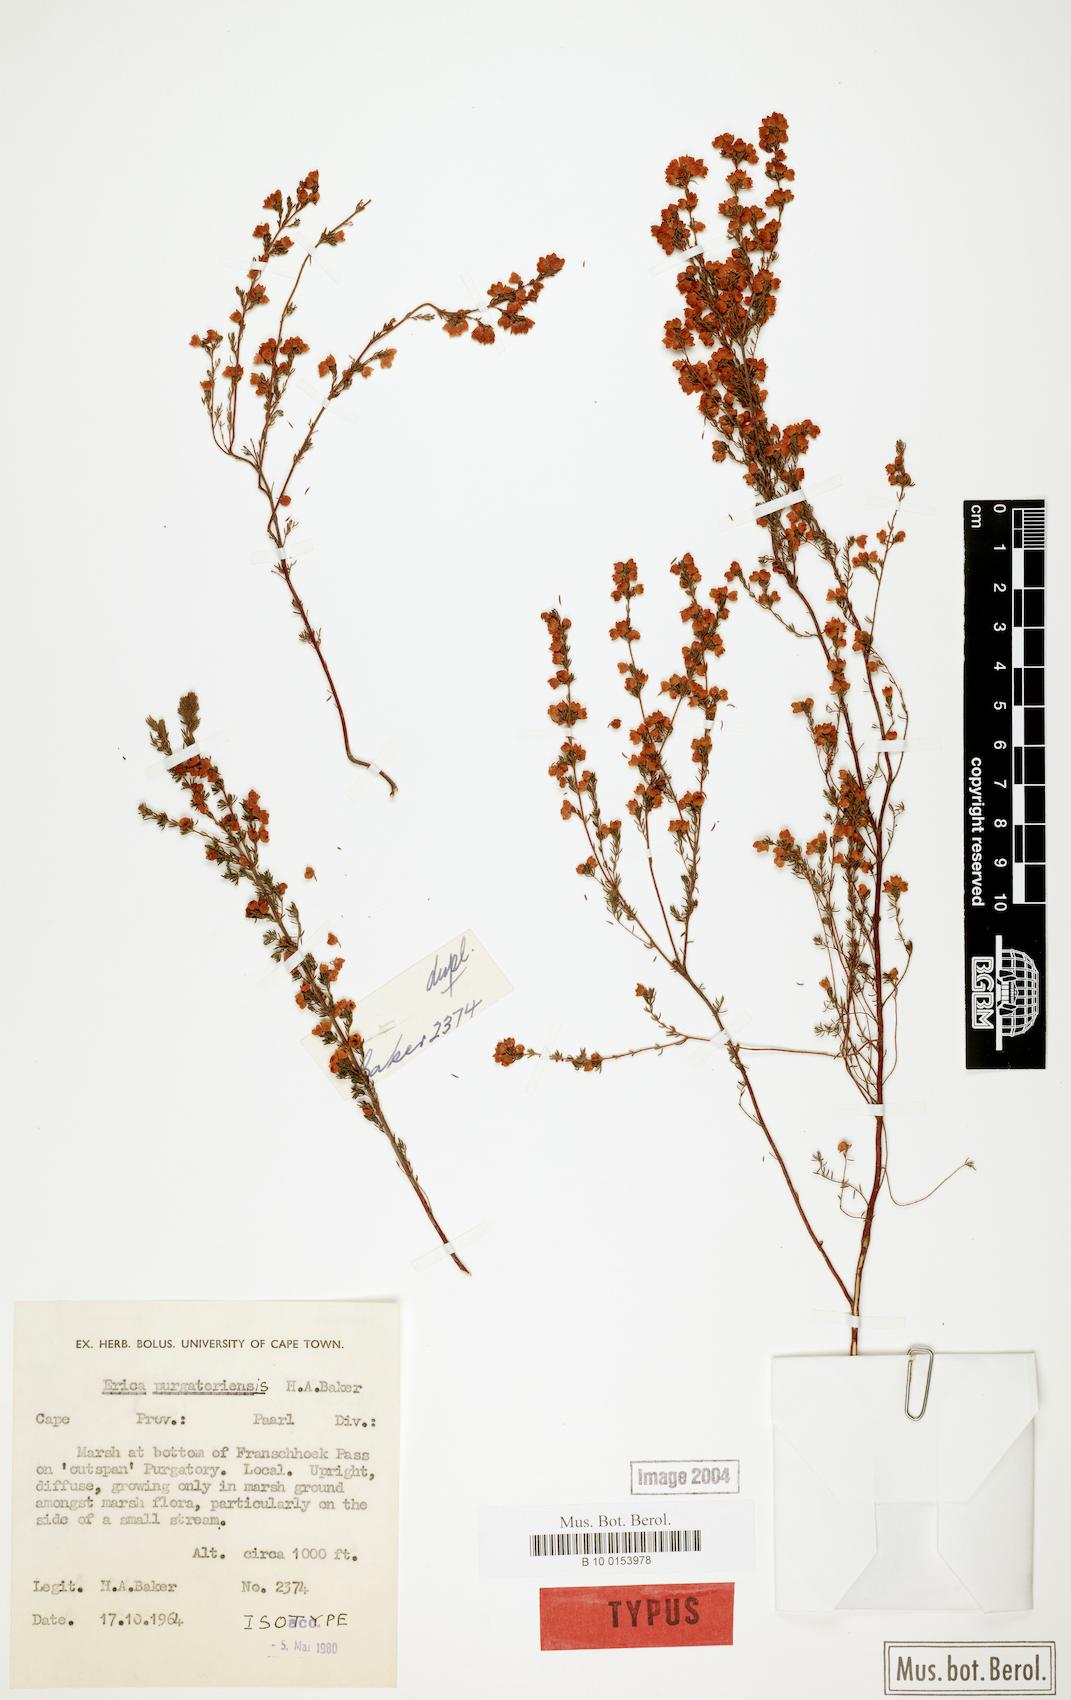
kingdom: Plantae
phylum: Tracheophyta
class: Magnoliopsida
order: Ericales
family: Ericaceae
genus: Erica
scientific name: Erica purgatoriensis
